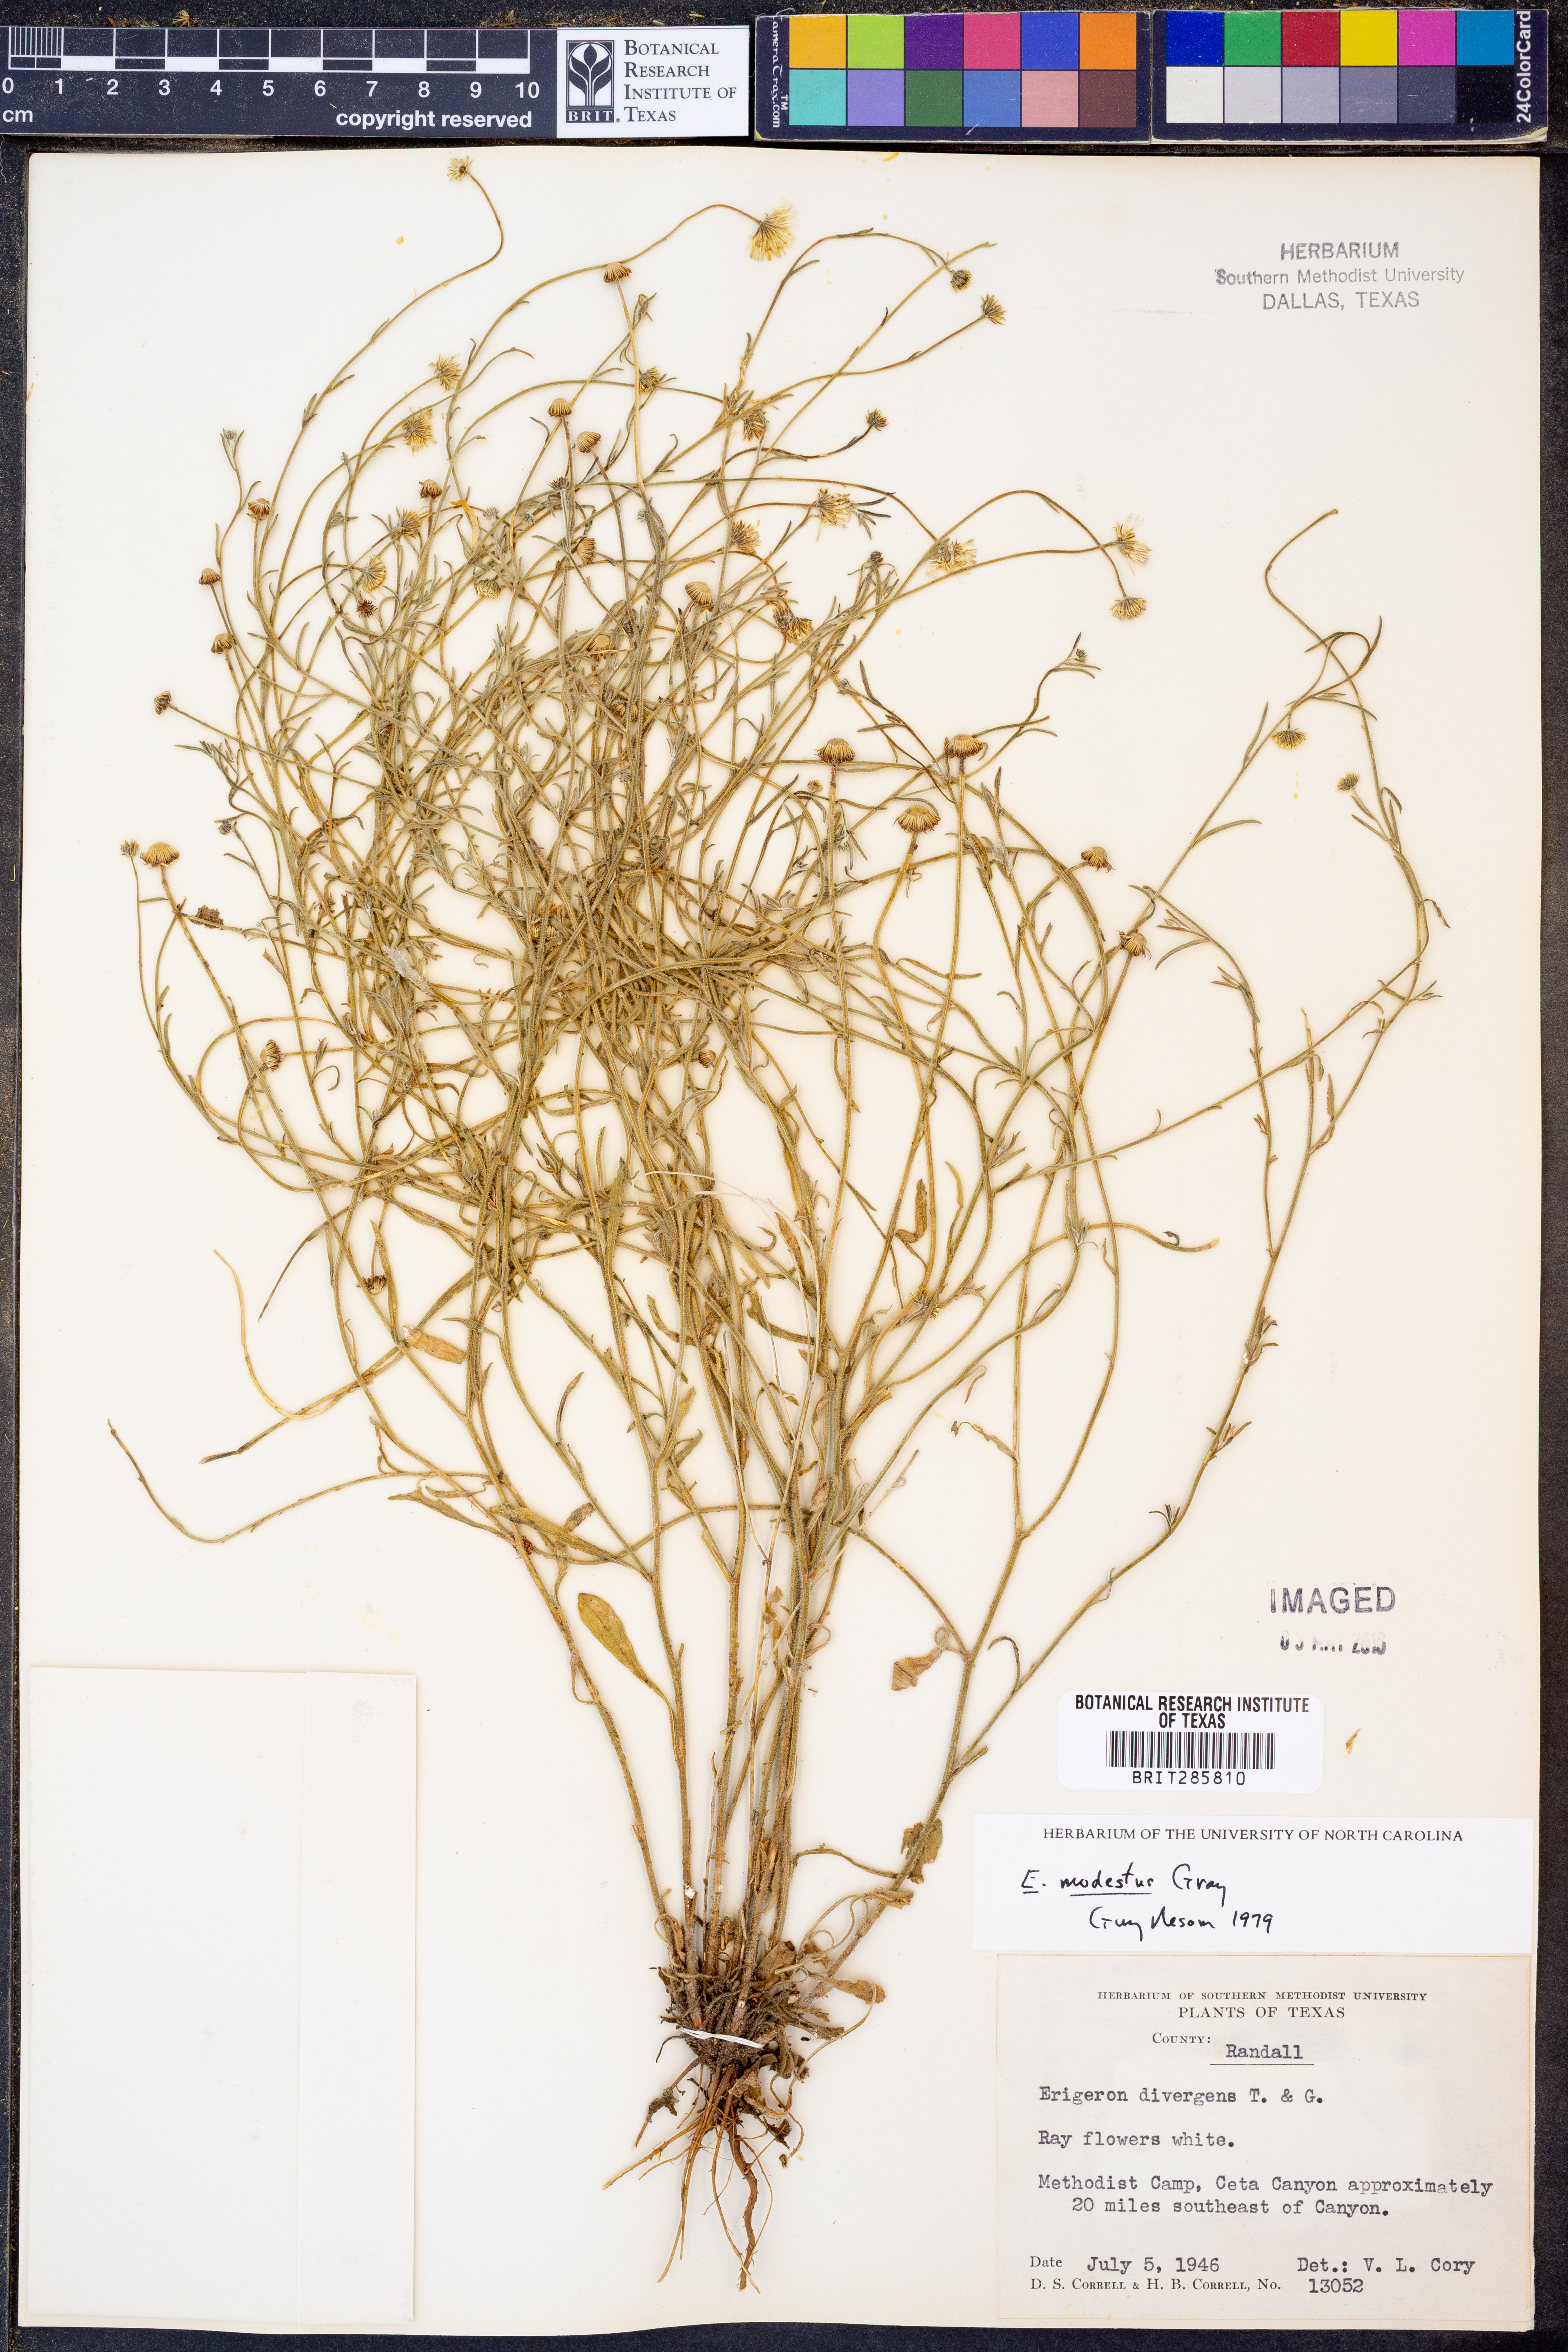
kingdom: Plantae
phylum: Tracheophyta
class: Magnoliopsida
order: Asterales
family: Asteraceae
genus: Erigeron
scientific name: Erigeron modestus
